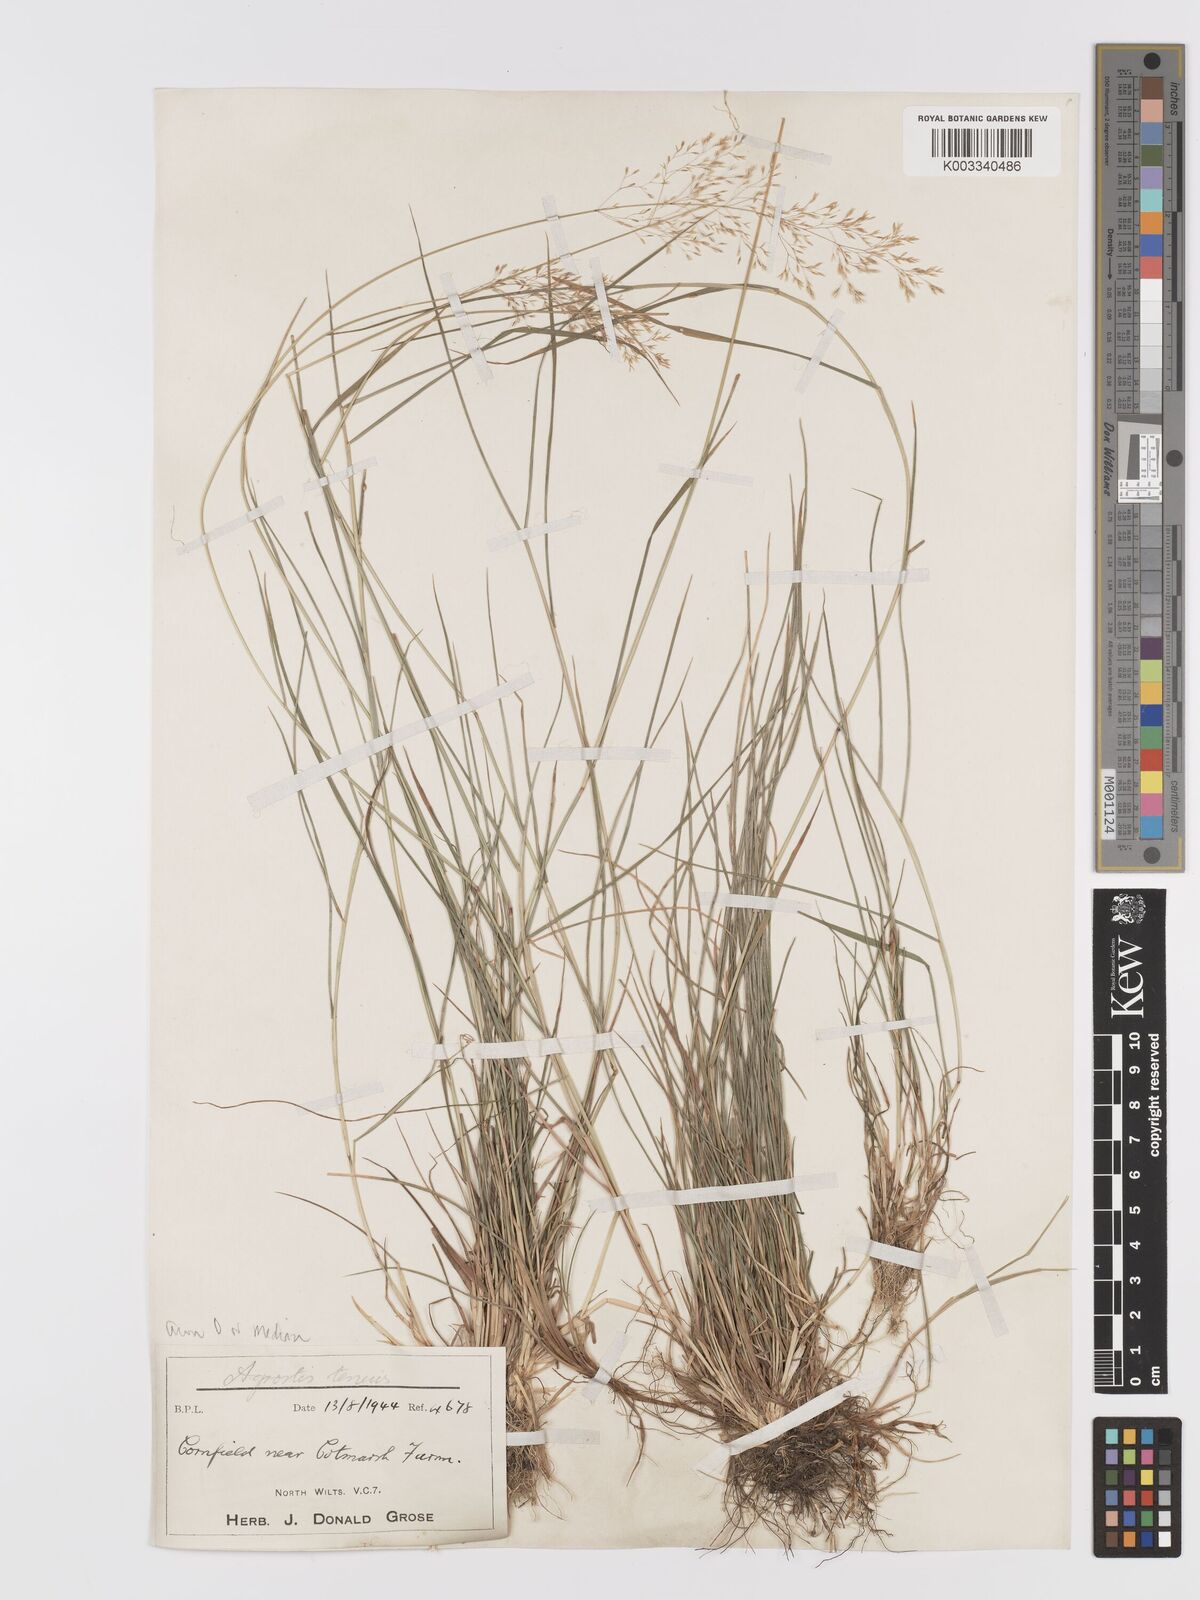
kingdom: Plantae
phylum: Tracheophyta
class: Liliopsida
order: Poales
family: Poaceae
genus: Agrostis
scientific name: Agrostis capillaris
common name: Colonial bentgrass
